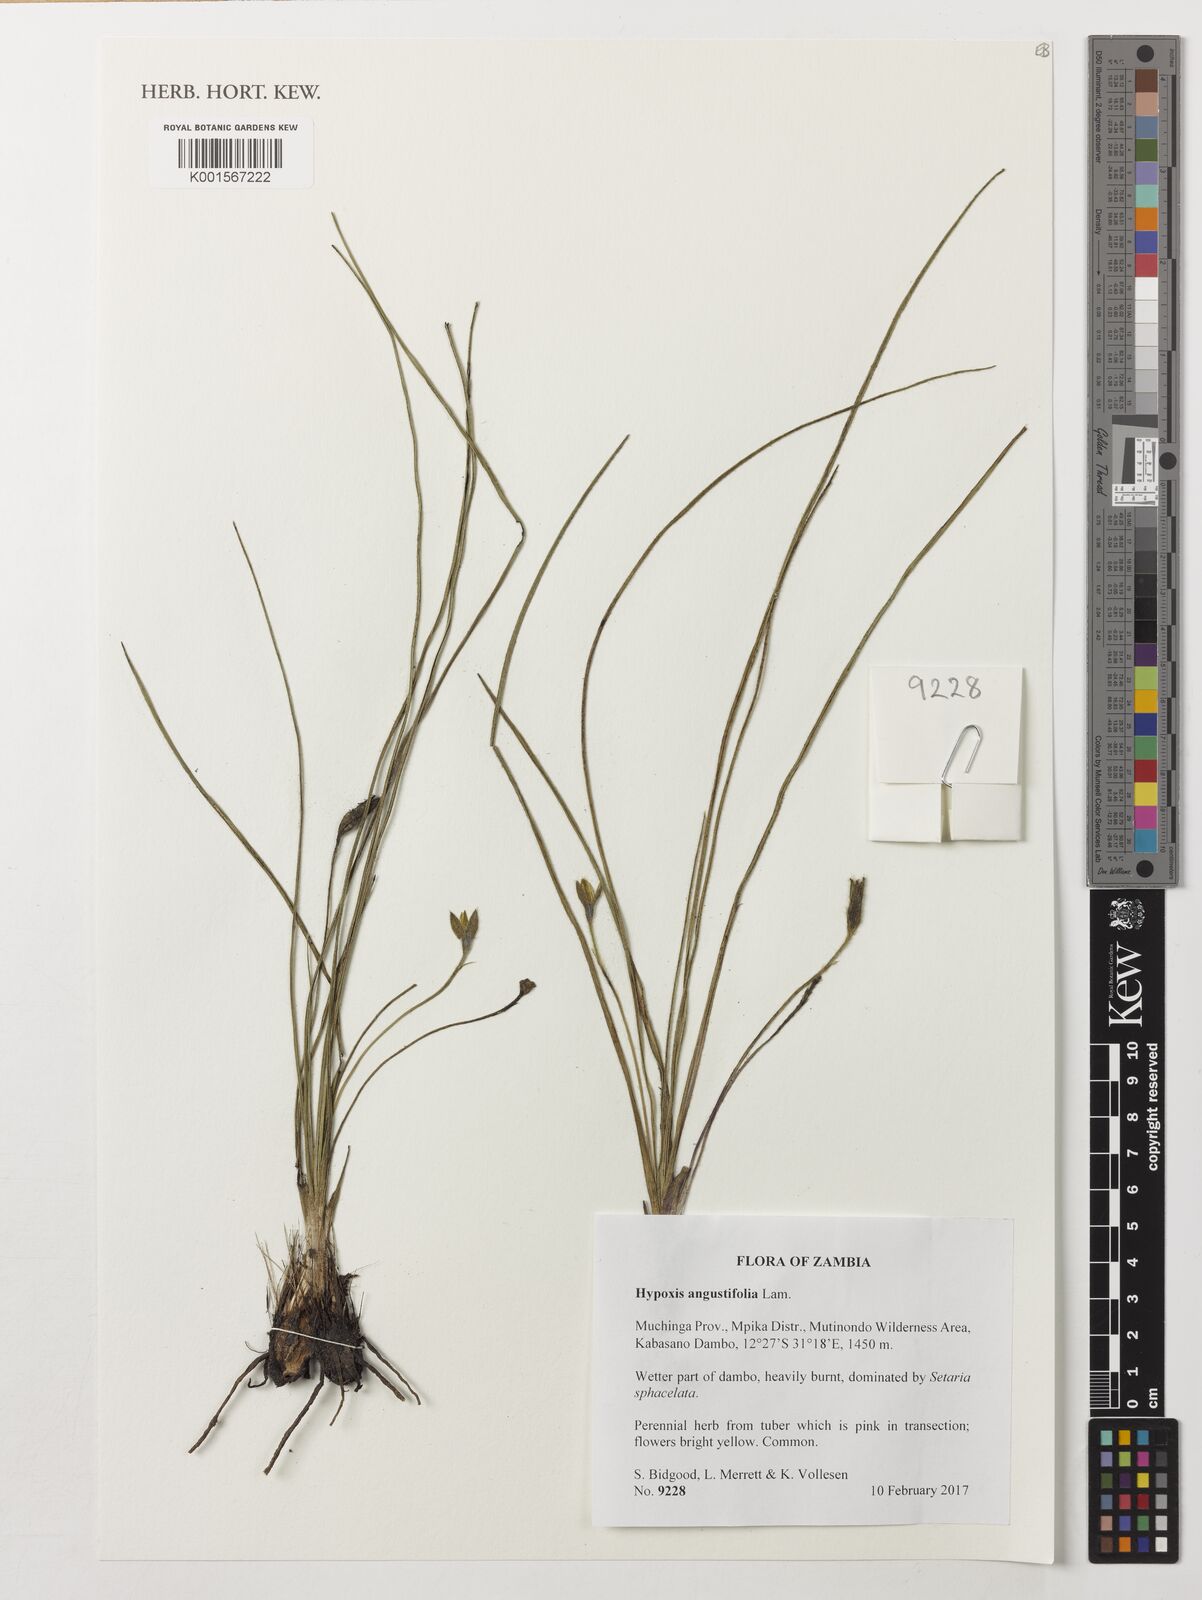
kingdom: Plantae
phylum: Tracheophyta
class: Liliopsida
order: Asparagales
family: Hypoxidaceae
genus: Hypoxis
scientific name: Hypoxis angustifolia
